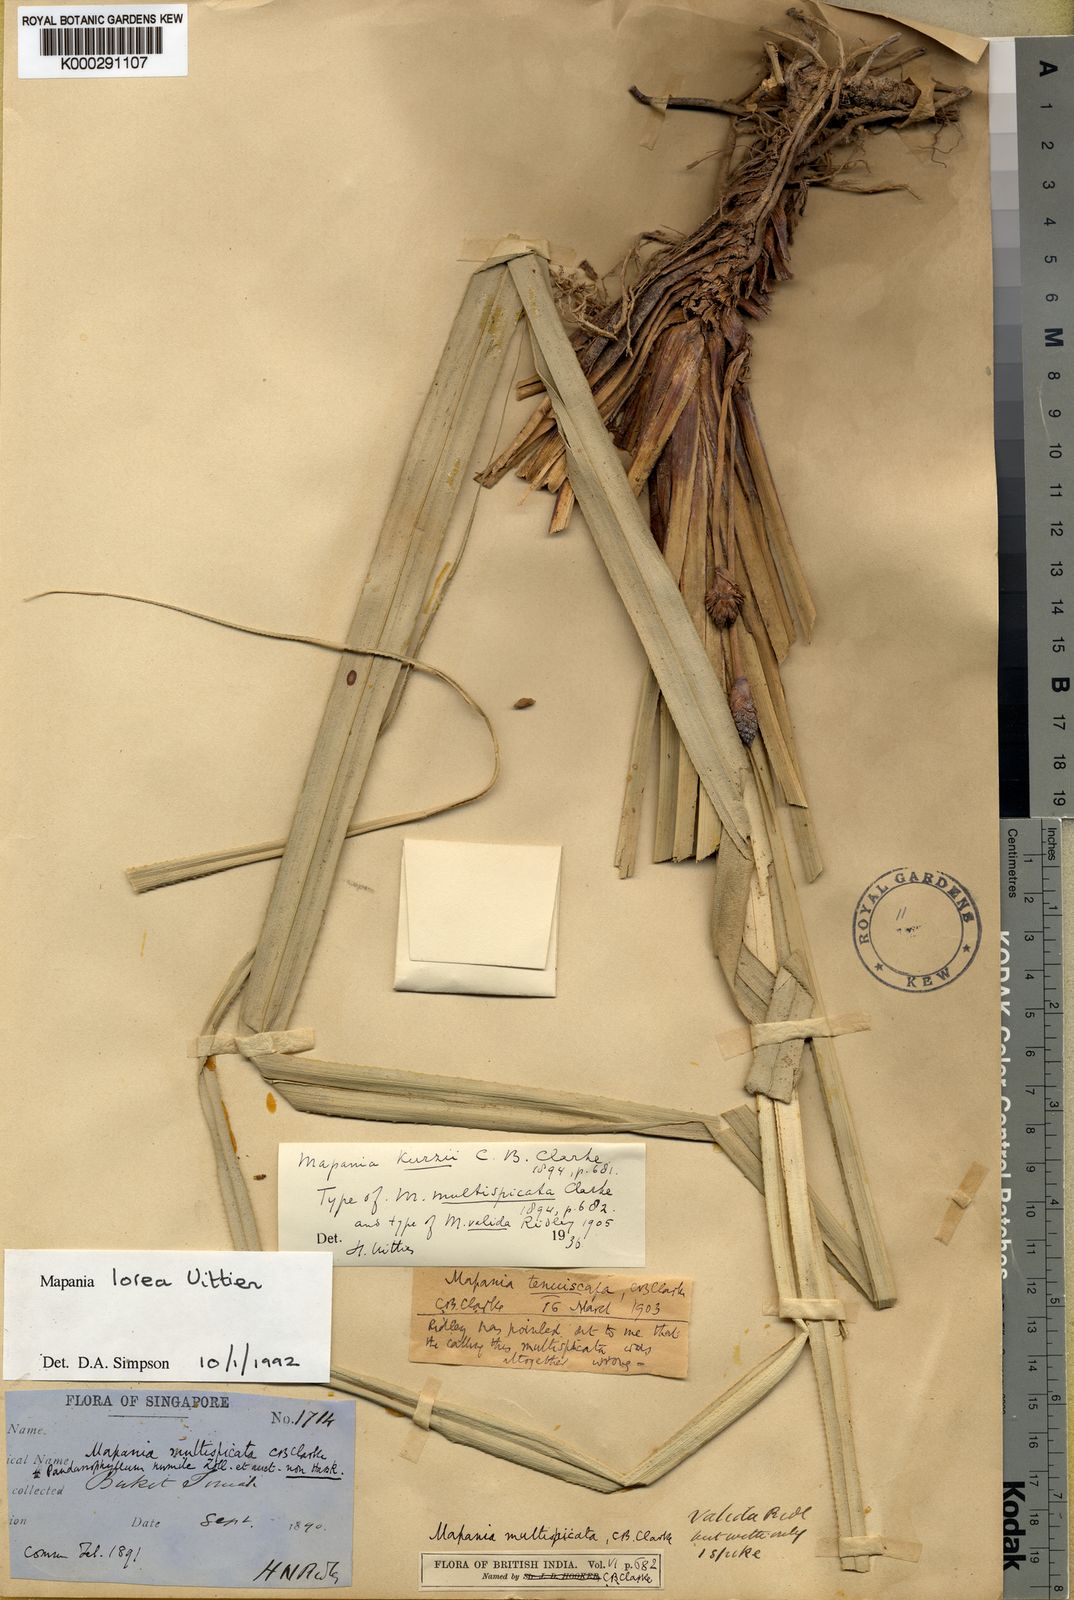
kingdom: Plantae
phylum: Tracheophyta
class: Liliopsida
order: Poales
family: Cyperaceae
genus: Mapania
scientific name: Mapania lorea
